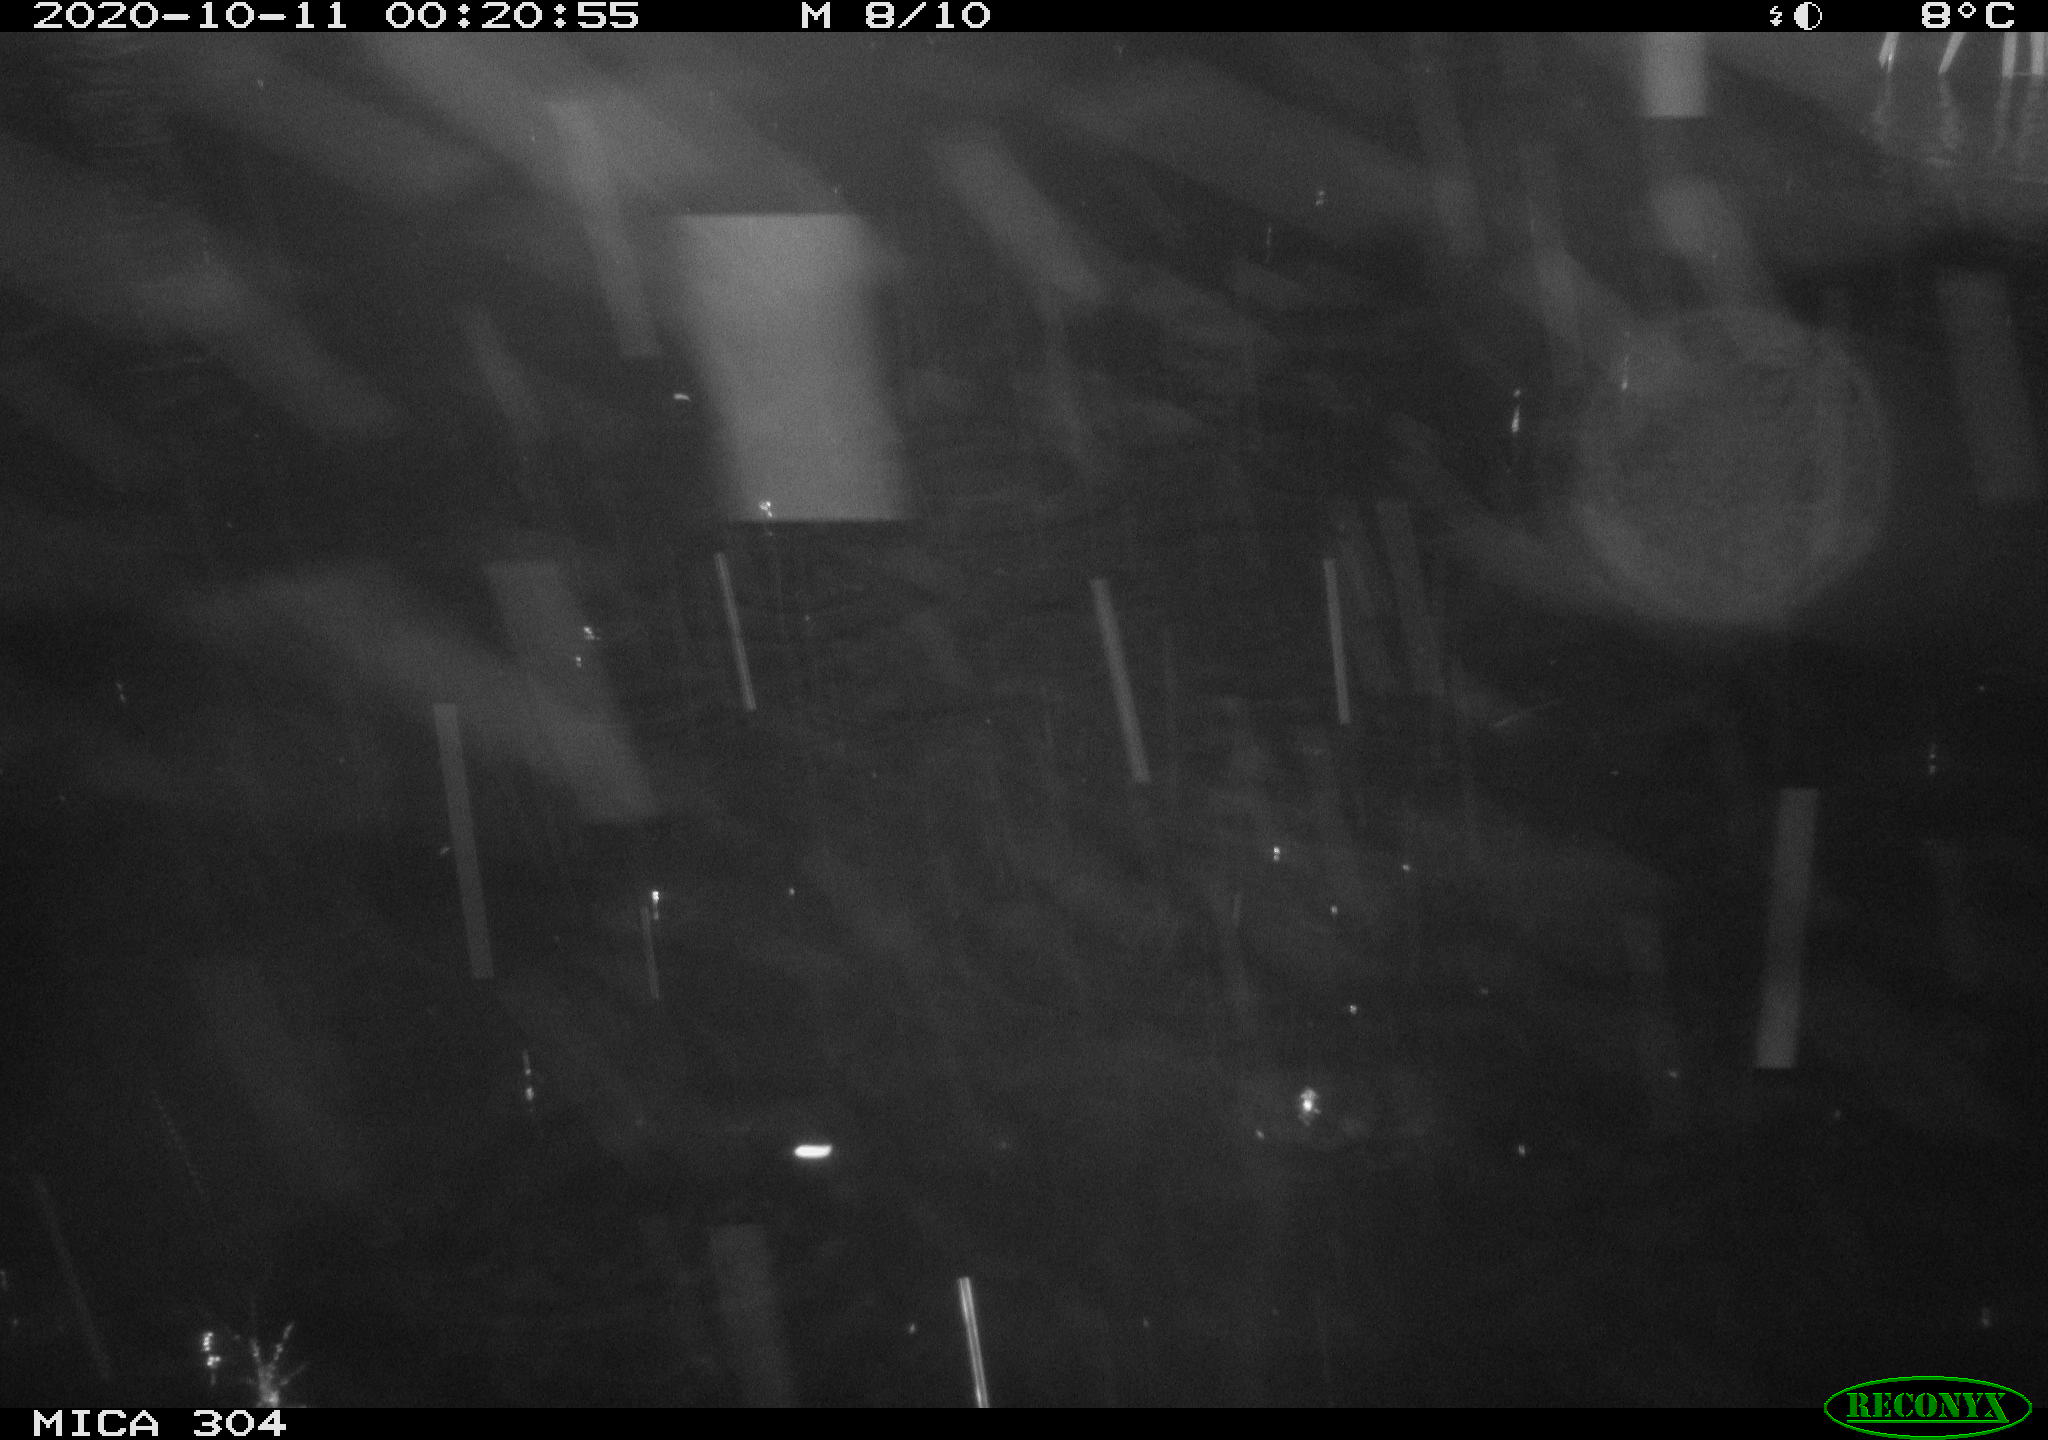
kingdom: Animalia
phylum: Chordata
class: Mammalia
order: Rodentia
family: Muridae
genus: Rattus
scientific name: Rattus norvegicus
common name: Brown rat
